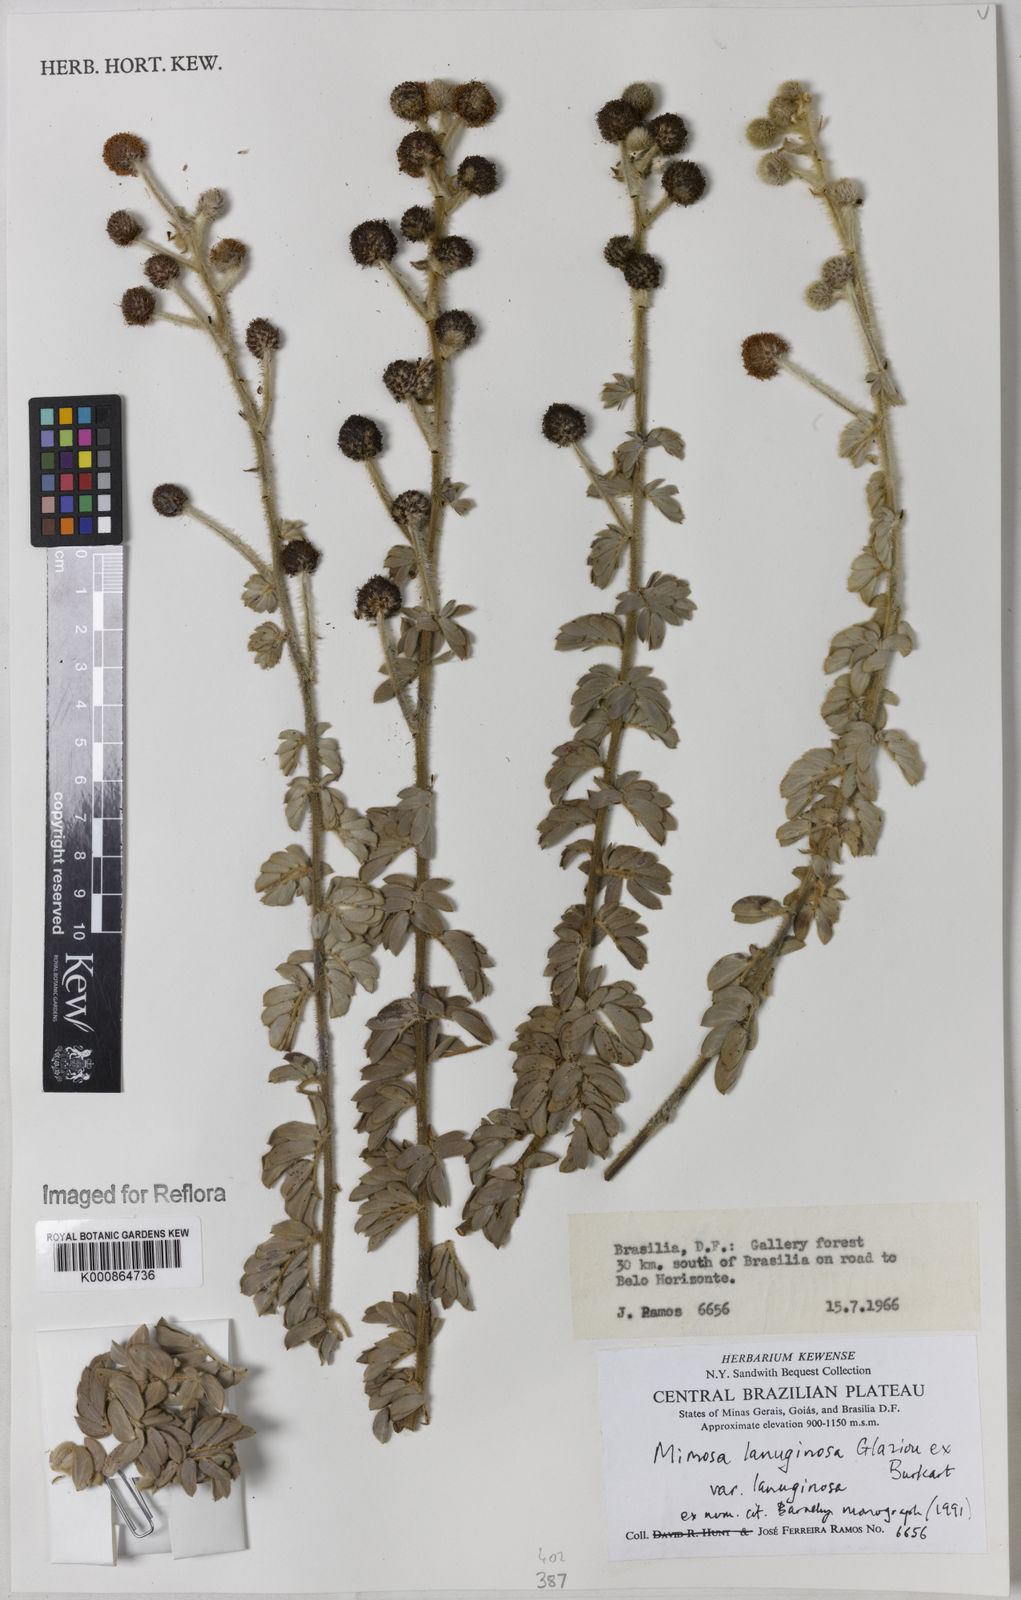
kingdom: Plantae
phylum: Tracheophyta
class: Magnoliopsida
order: Fabales
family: Fabaceae
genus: Mimosa
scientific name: Mimosa lanuginosa
